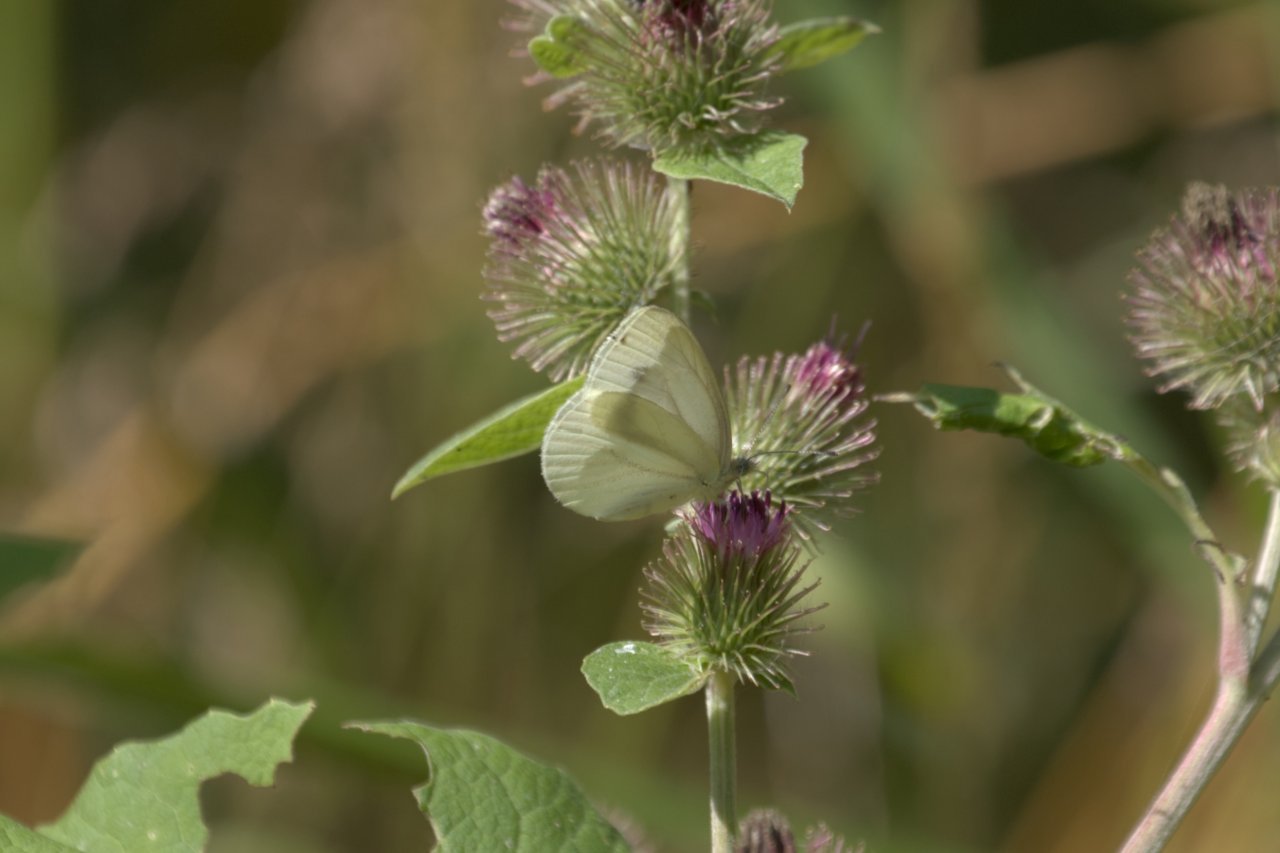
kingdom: Animalia
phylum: Arthropoda
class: Insecta
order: Lepidoptera
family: Pieridae
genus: Pieris
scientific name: Pieris marginalis
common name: Margined White
